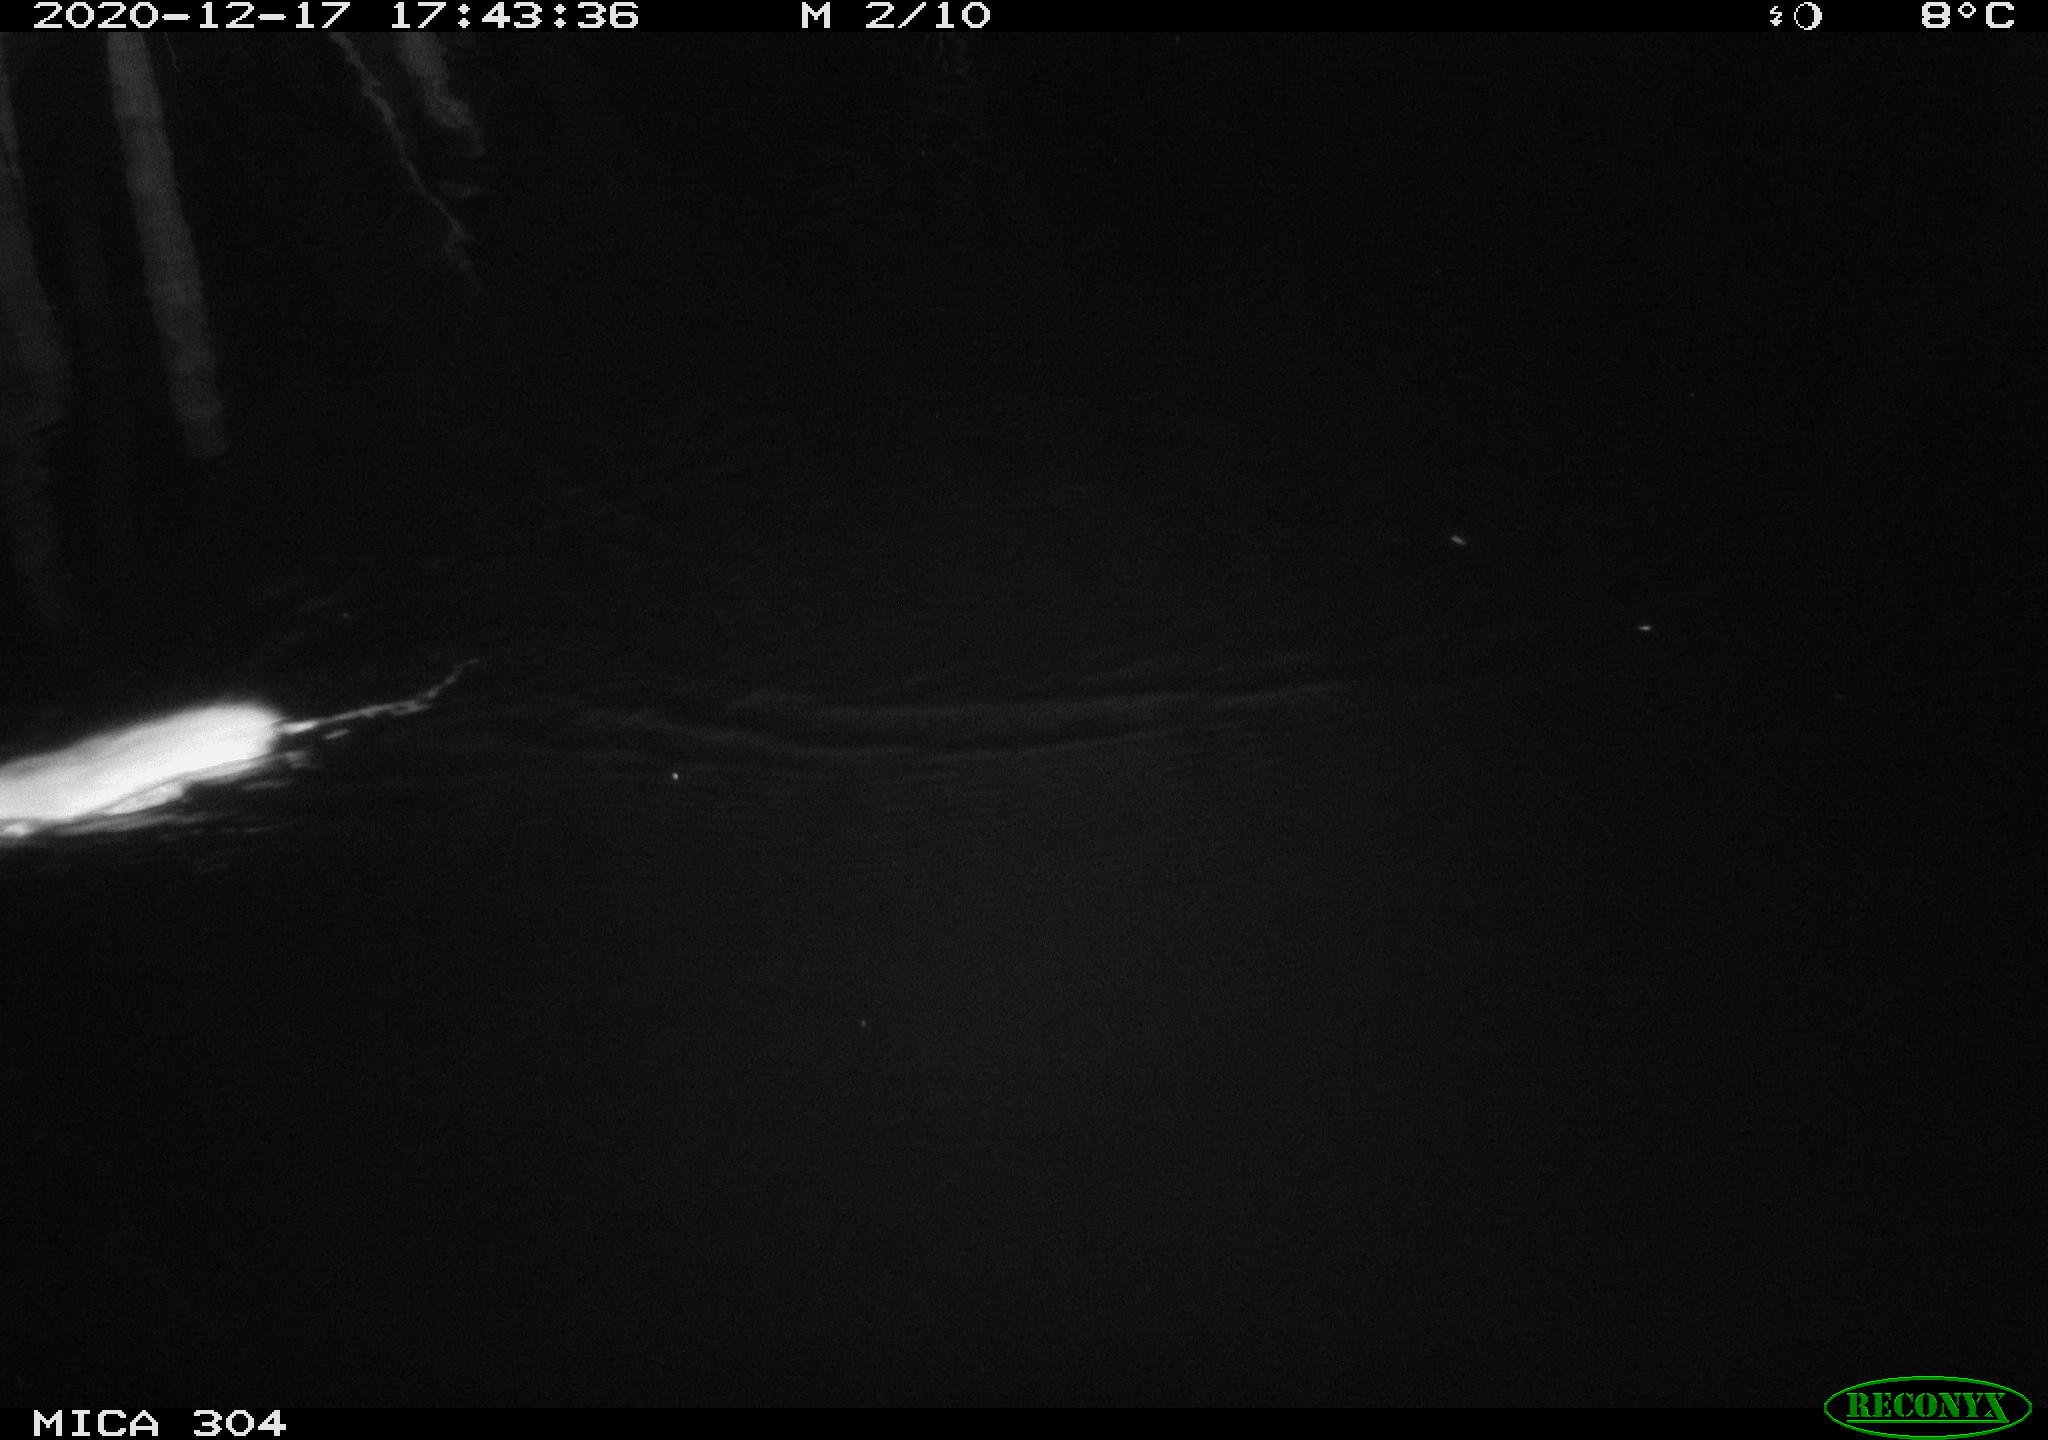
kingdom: Animalia
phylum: Chordata
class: Mammalia
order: Rodentia
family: Muridae
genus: Rattus
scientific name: Rattus norvegicus
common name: Brown rat
